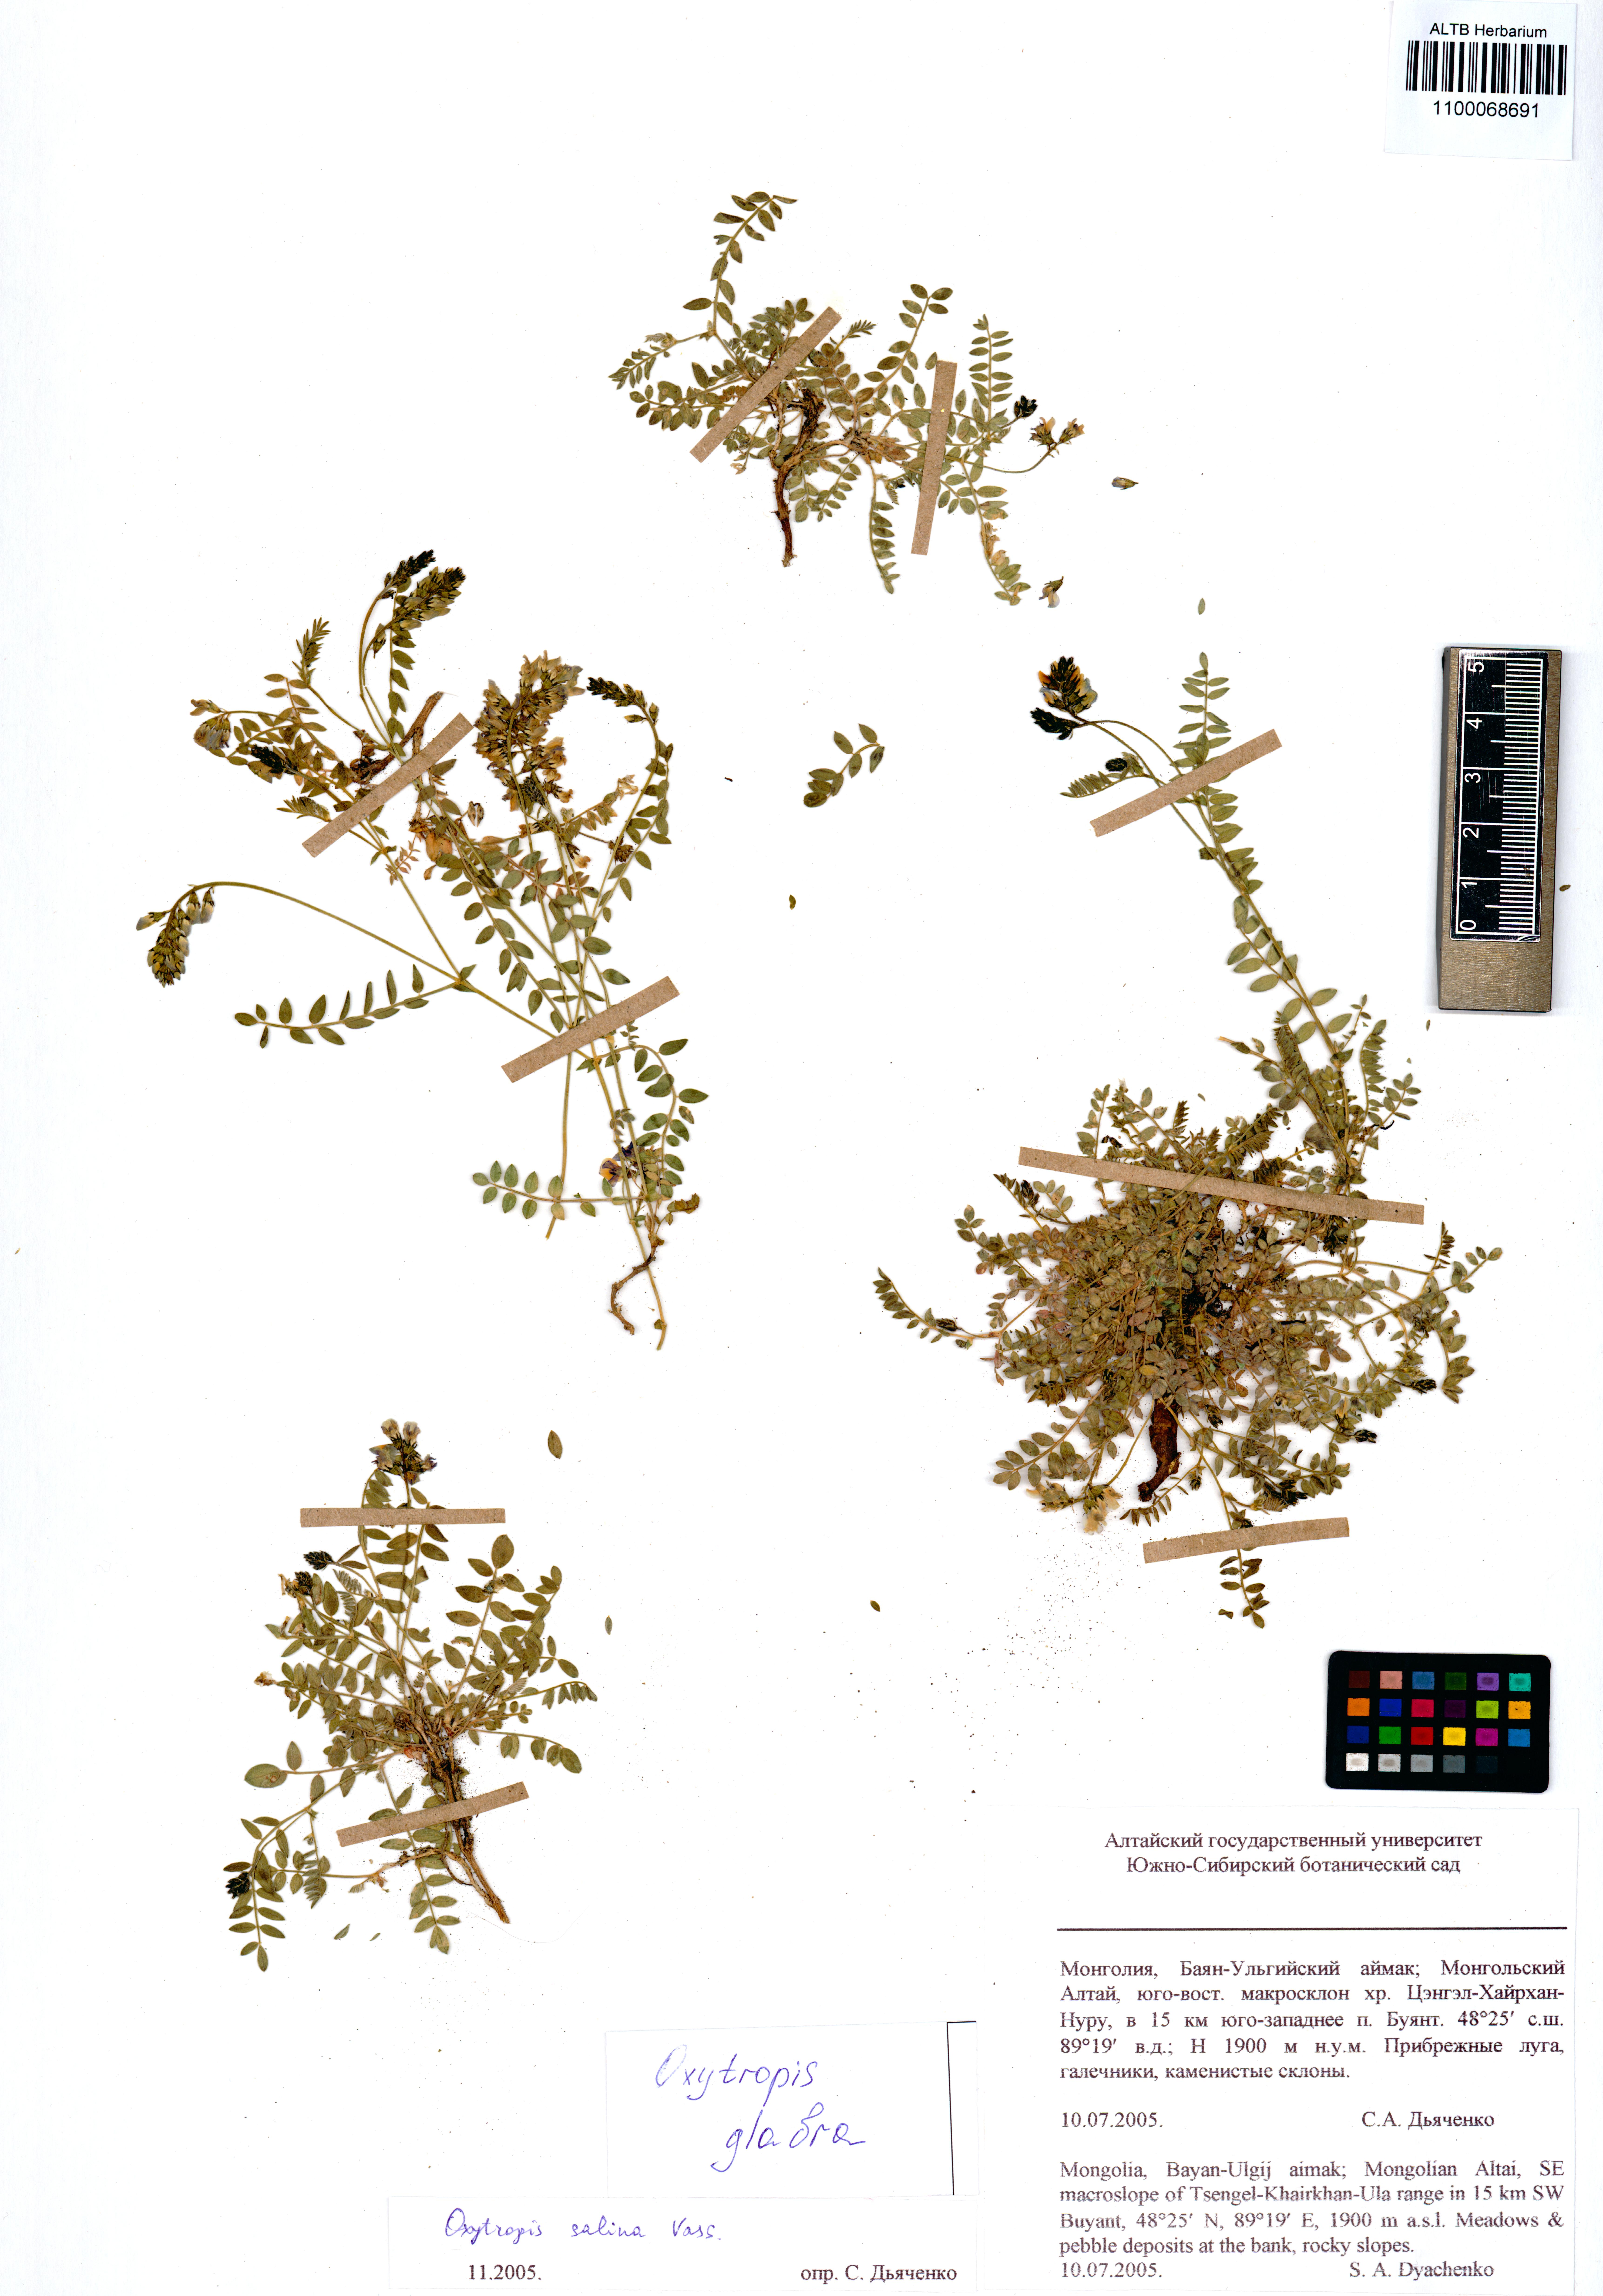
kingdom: Plantae
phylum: Tracheophyta
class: Magnoliopsida
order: Fabales
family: Fabaceae
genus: Oxytropis
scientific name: Oxytropis glabra
